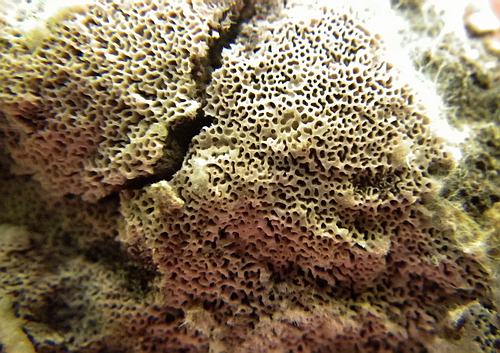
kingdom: Fungi
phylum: Basidiomycota
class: Agaricomycetes
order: Polyporales
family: Irpicaceae
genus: Ceriporia
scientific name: Ceriporia excelsa
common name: lilla voksporesvamp
